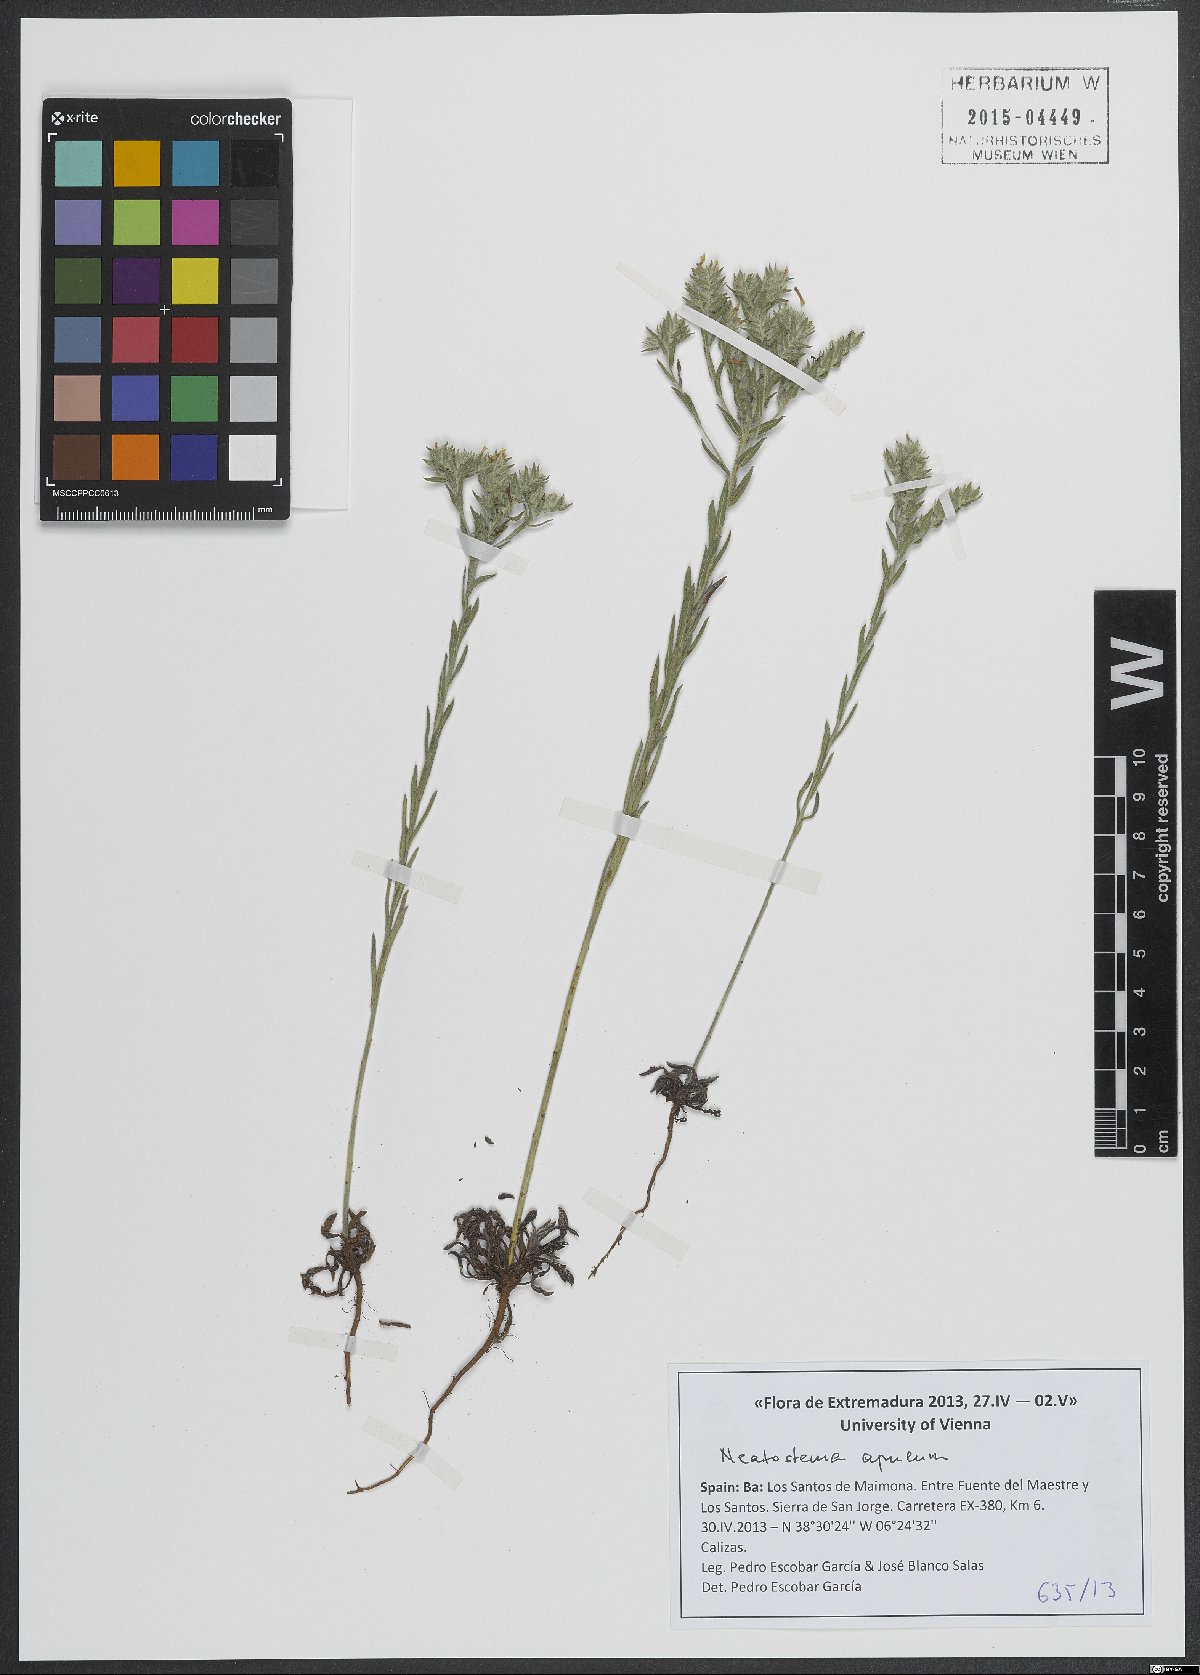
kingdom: Plantae
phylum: Tracheophyta
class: Magnoliopsida
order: Boraginales
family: Boraginaceae
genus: Neatostema
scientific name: Neatostema apulum
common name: Hairy sheepweed
